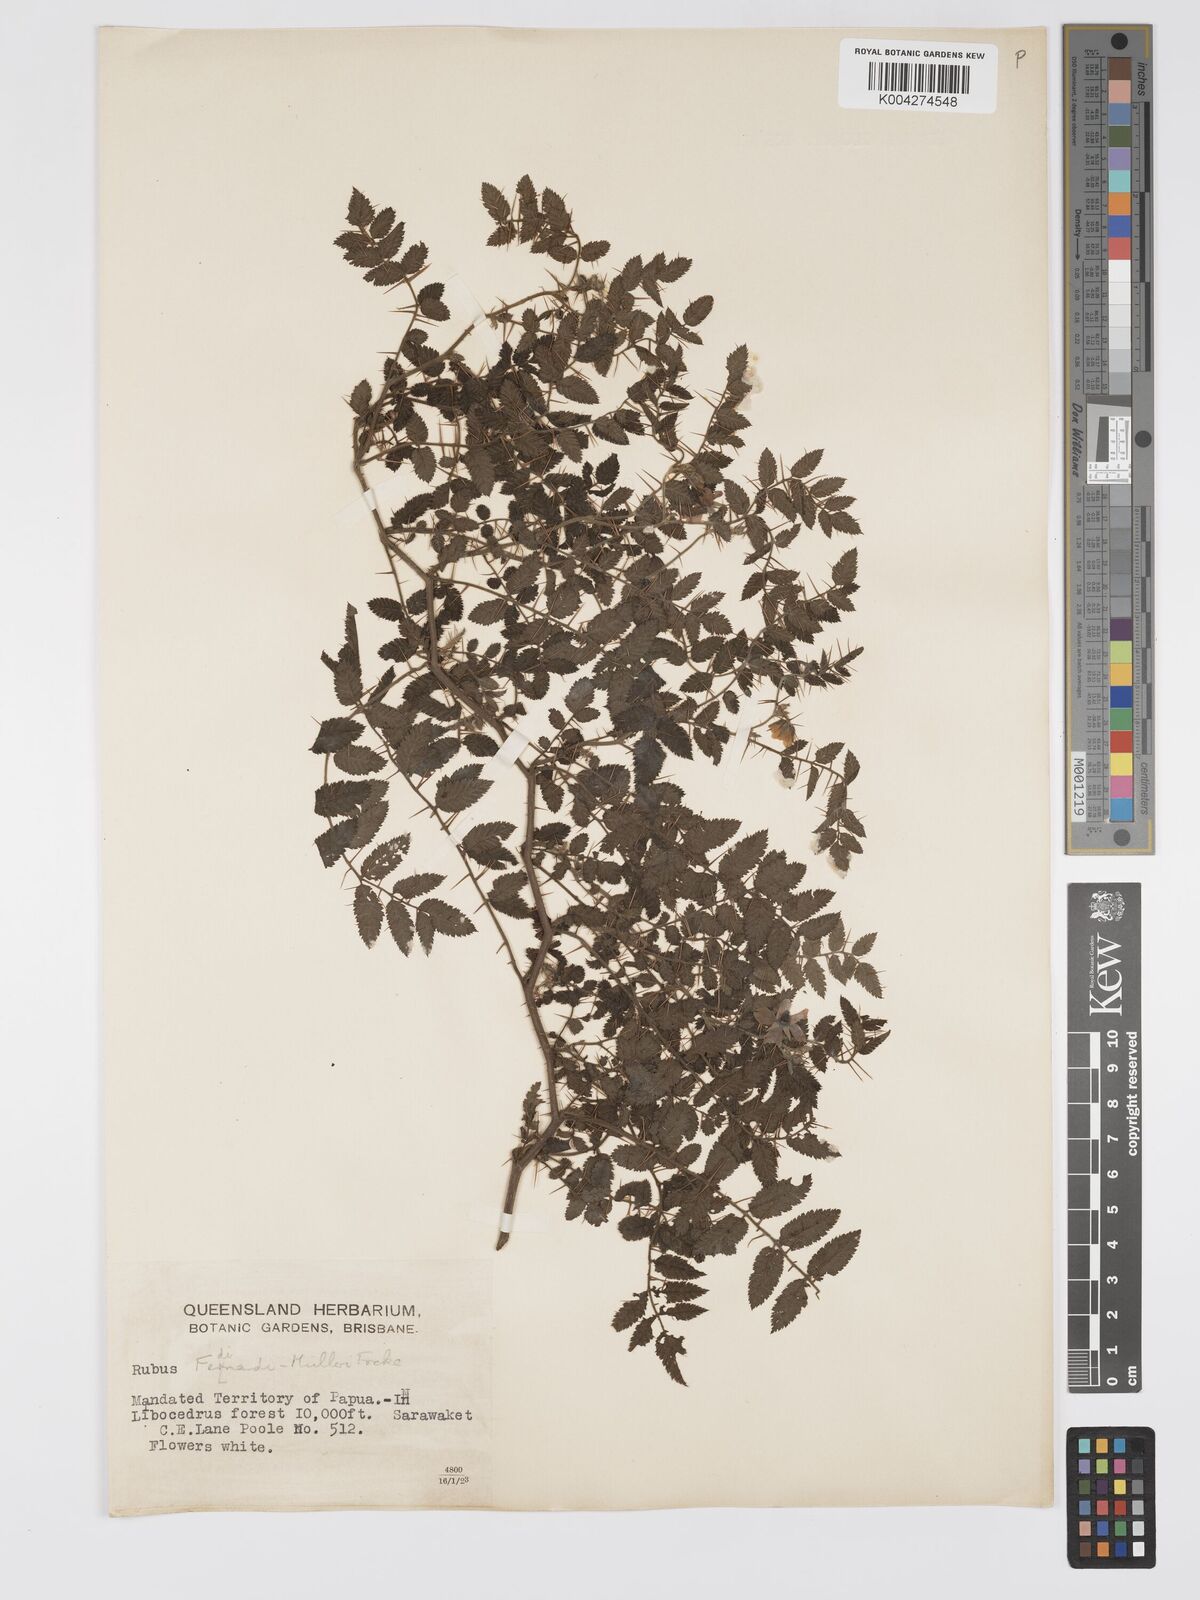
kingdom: Plantae
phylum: Tracheophyta
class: Magnoliopsida
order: Rosales
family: Rosaceae
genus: Rubus
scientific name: Rubus ferdinandimuelleri
